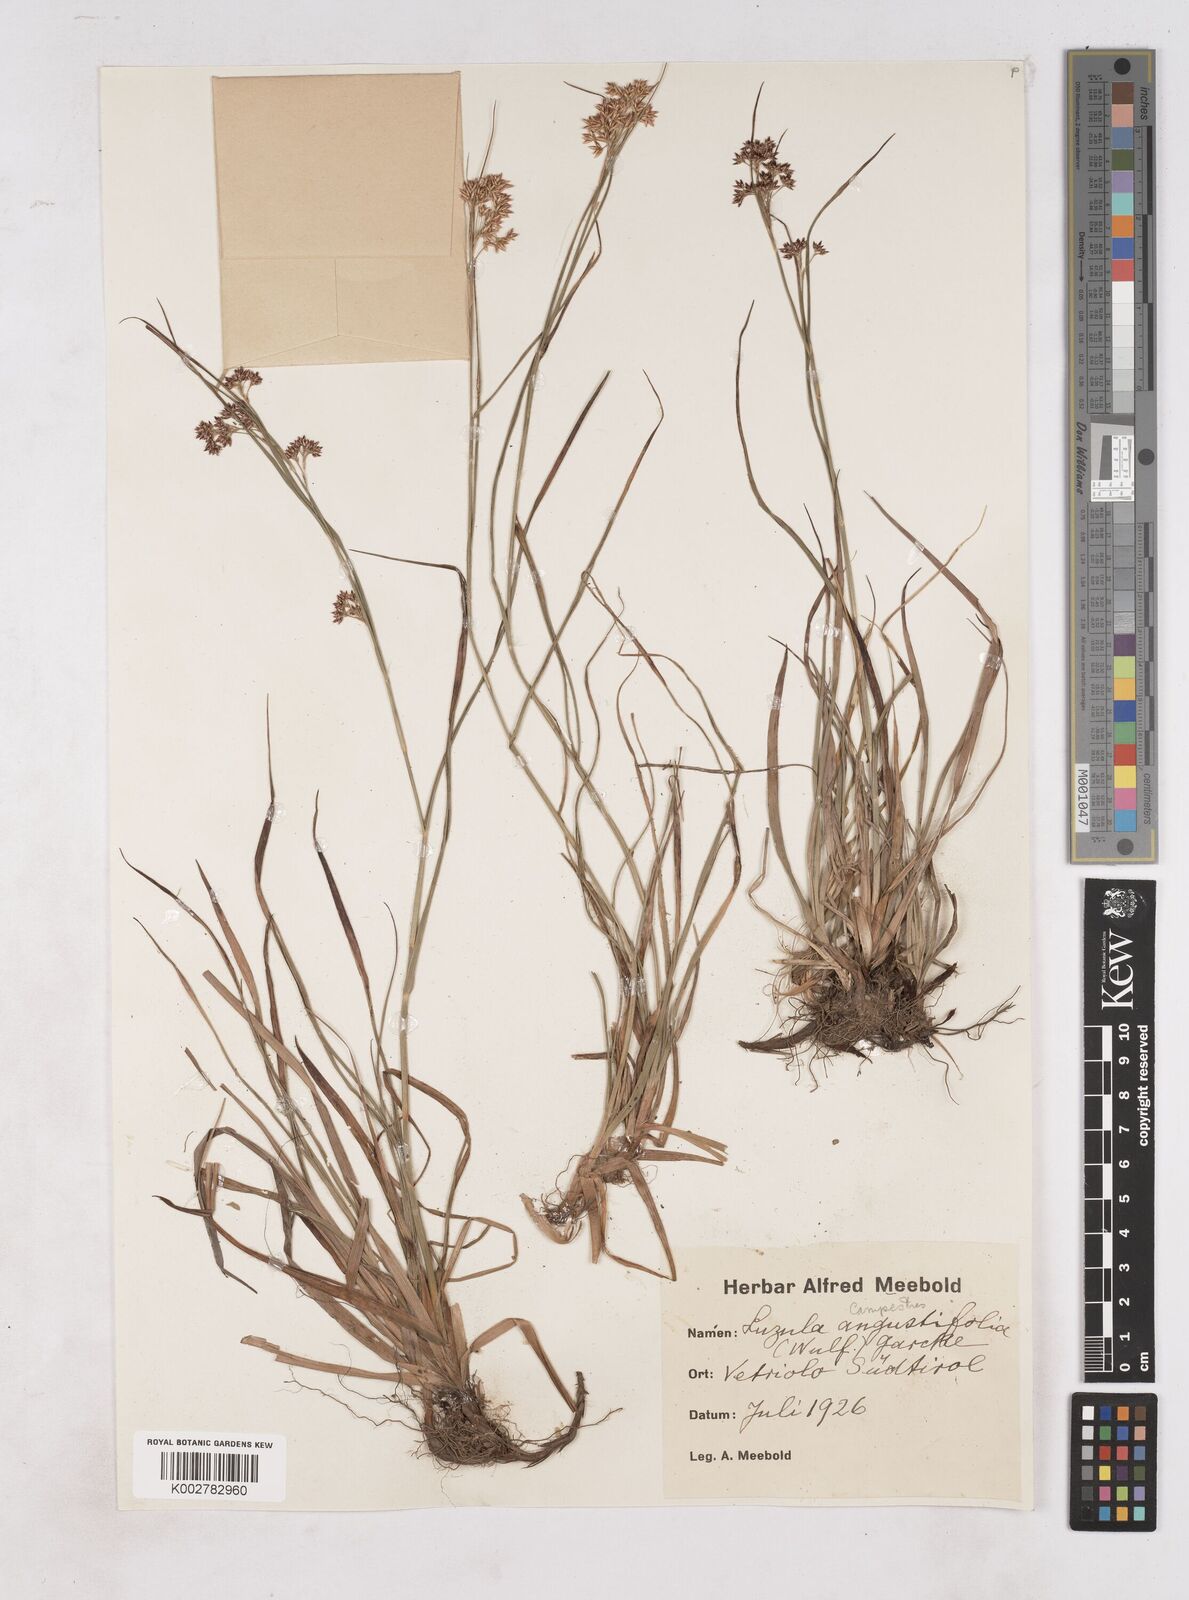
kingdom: Plantae
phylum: Tracheophyta
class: Liliopsida
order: Poales
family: Juncaceae
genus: Luzula
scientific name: Luzula campestris
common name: Field wood-rush
